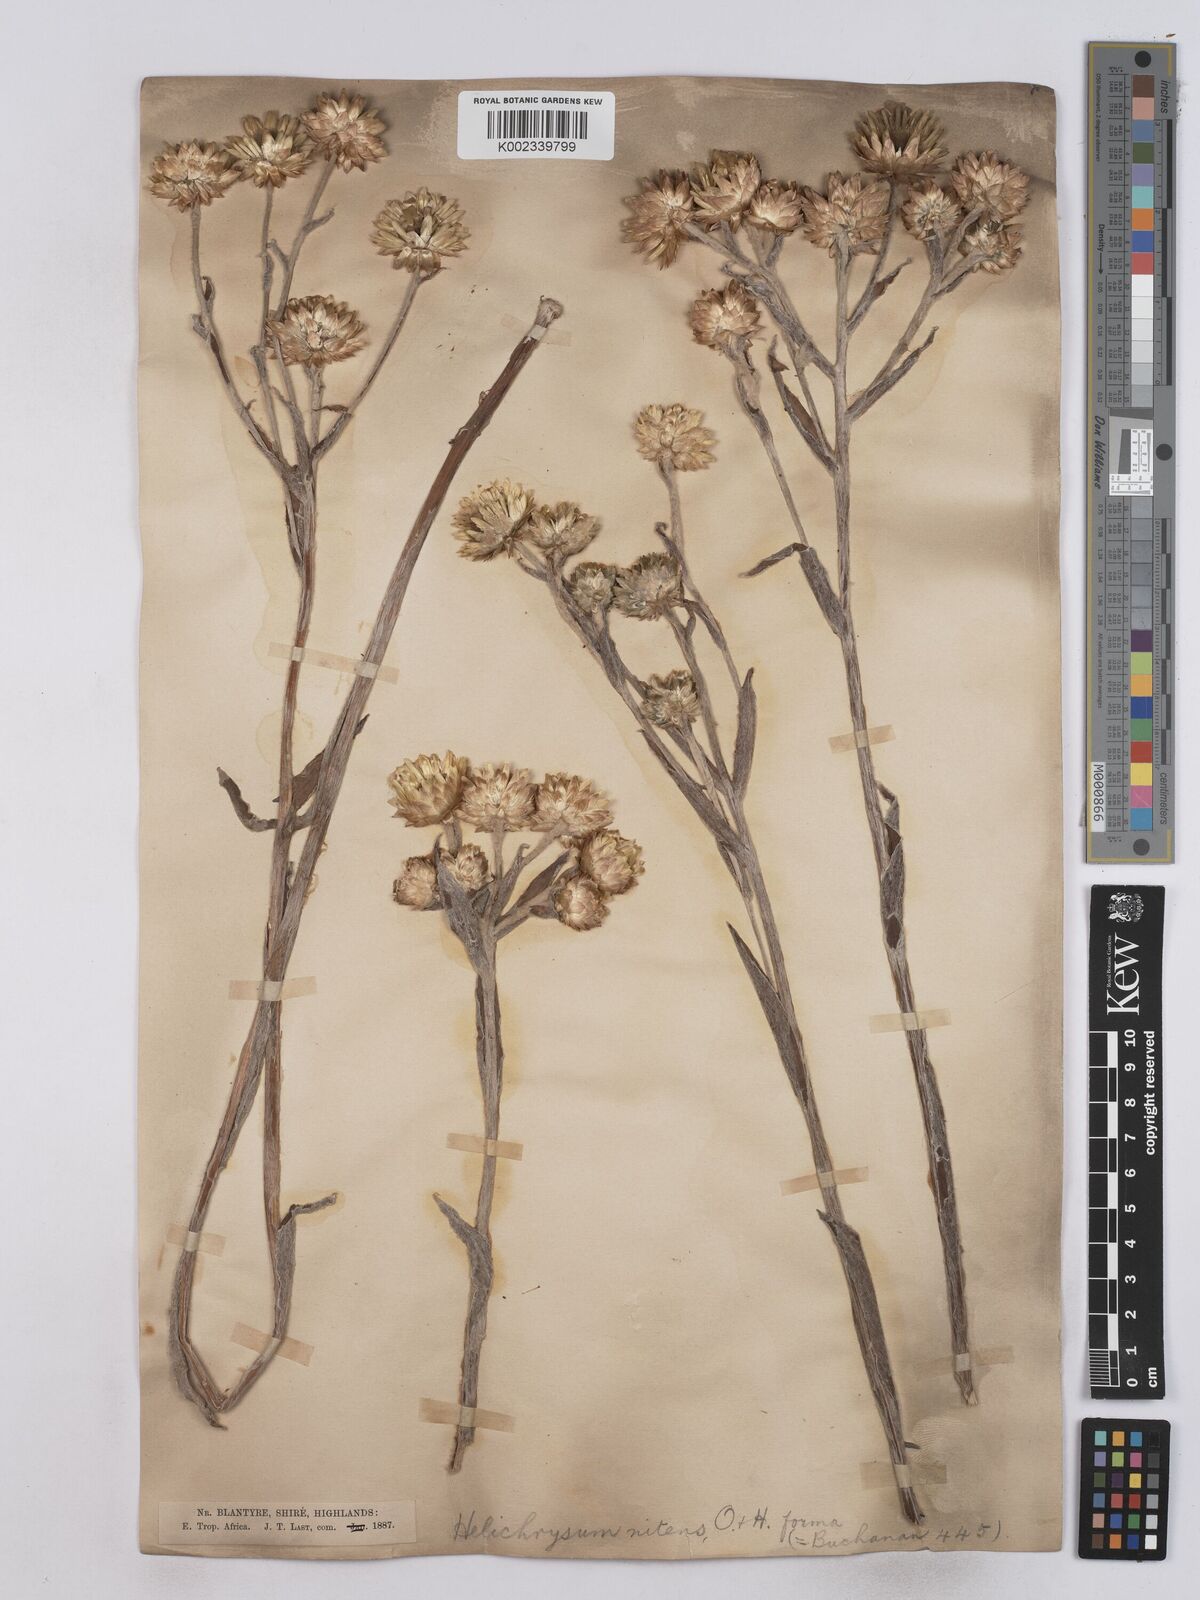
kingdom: Plantae
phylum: Tracheophyta
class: Magnoliopsida
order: Asterales
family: Asteraceae
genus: Helichrysum
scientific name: Helichrysum nitens
